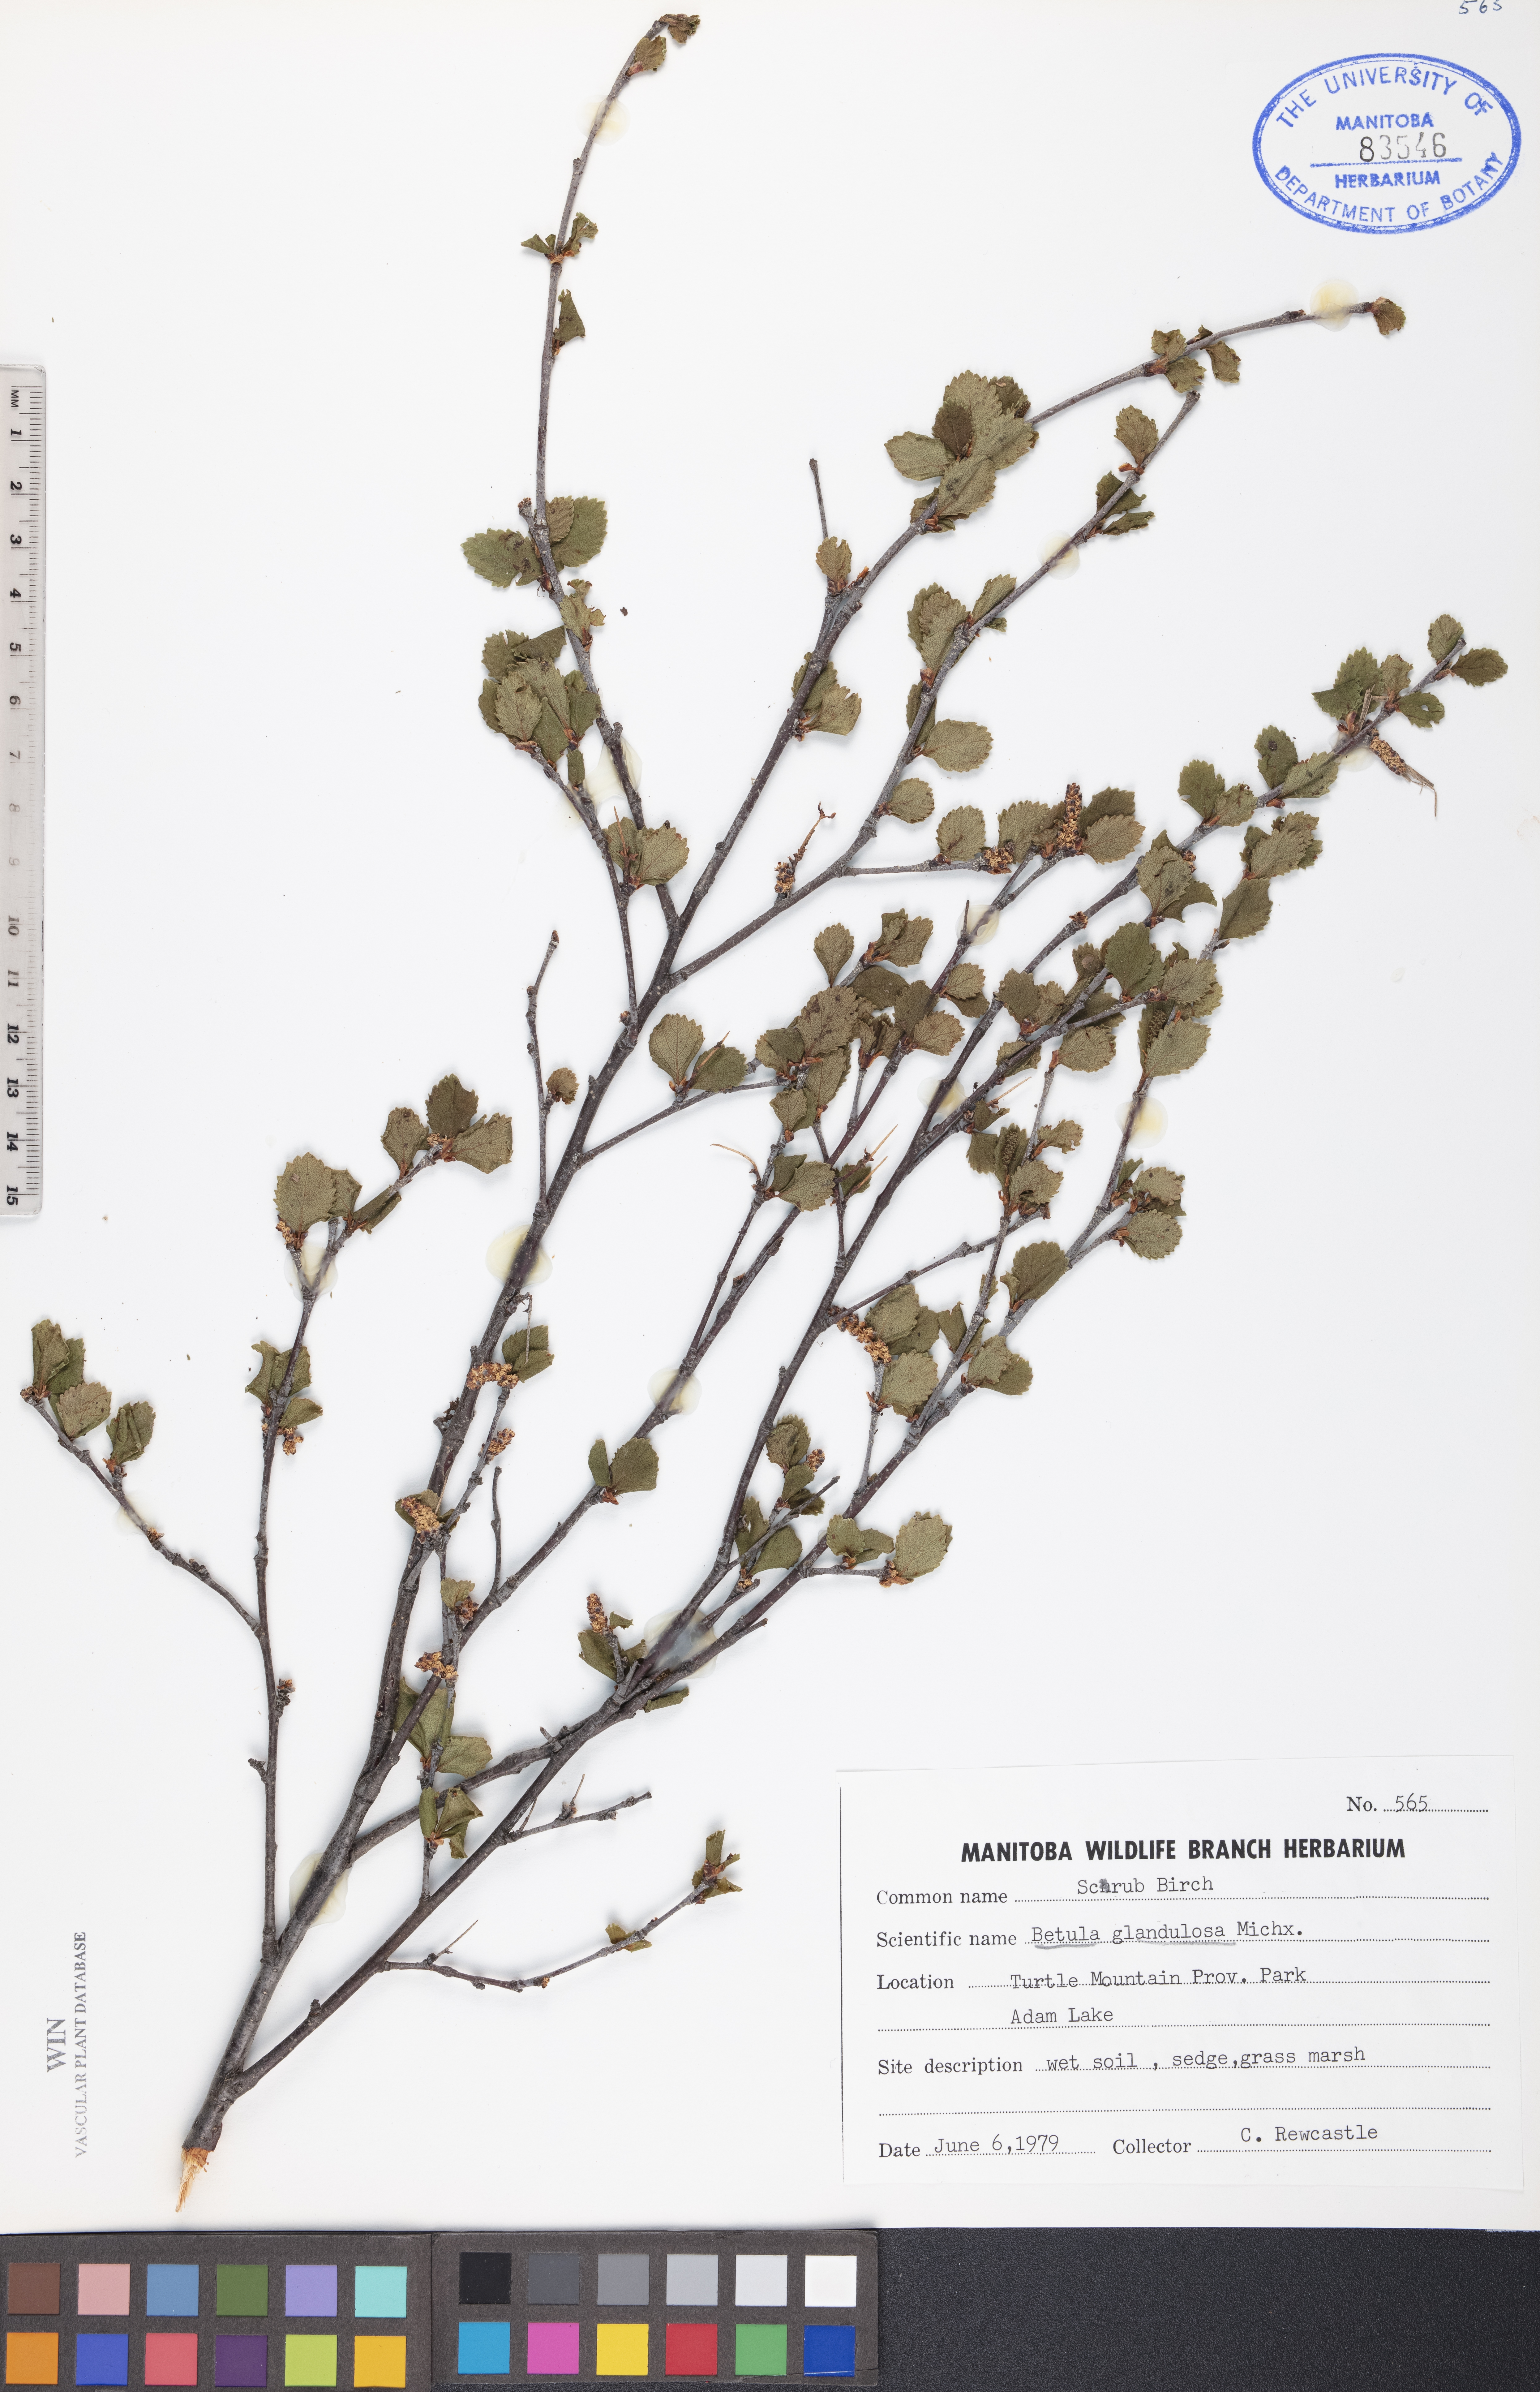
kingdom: Plantae
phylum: Tracheophyta
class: Magnoliopsida
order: Fagales
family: Betulaceae
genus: Betula
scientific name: Betula glandulosa
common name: Dwarf birch
